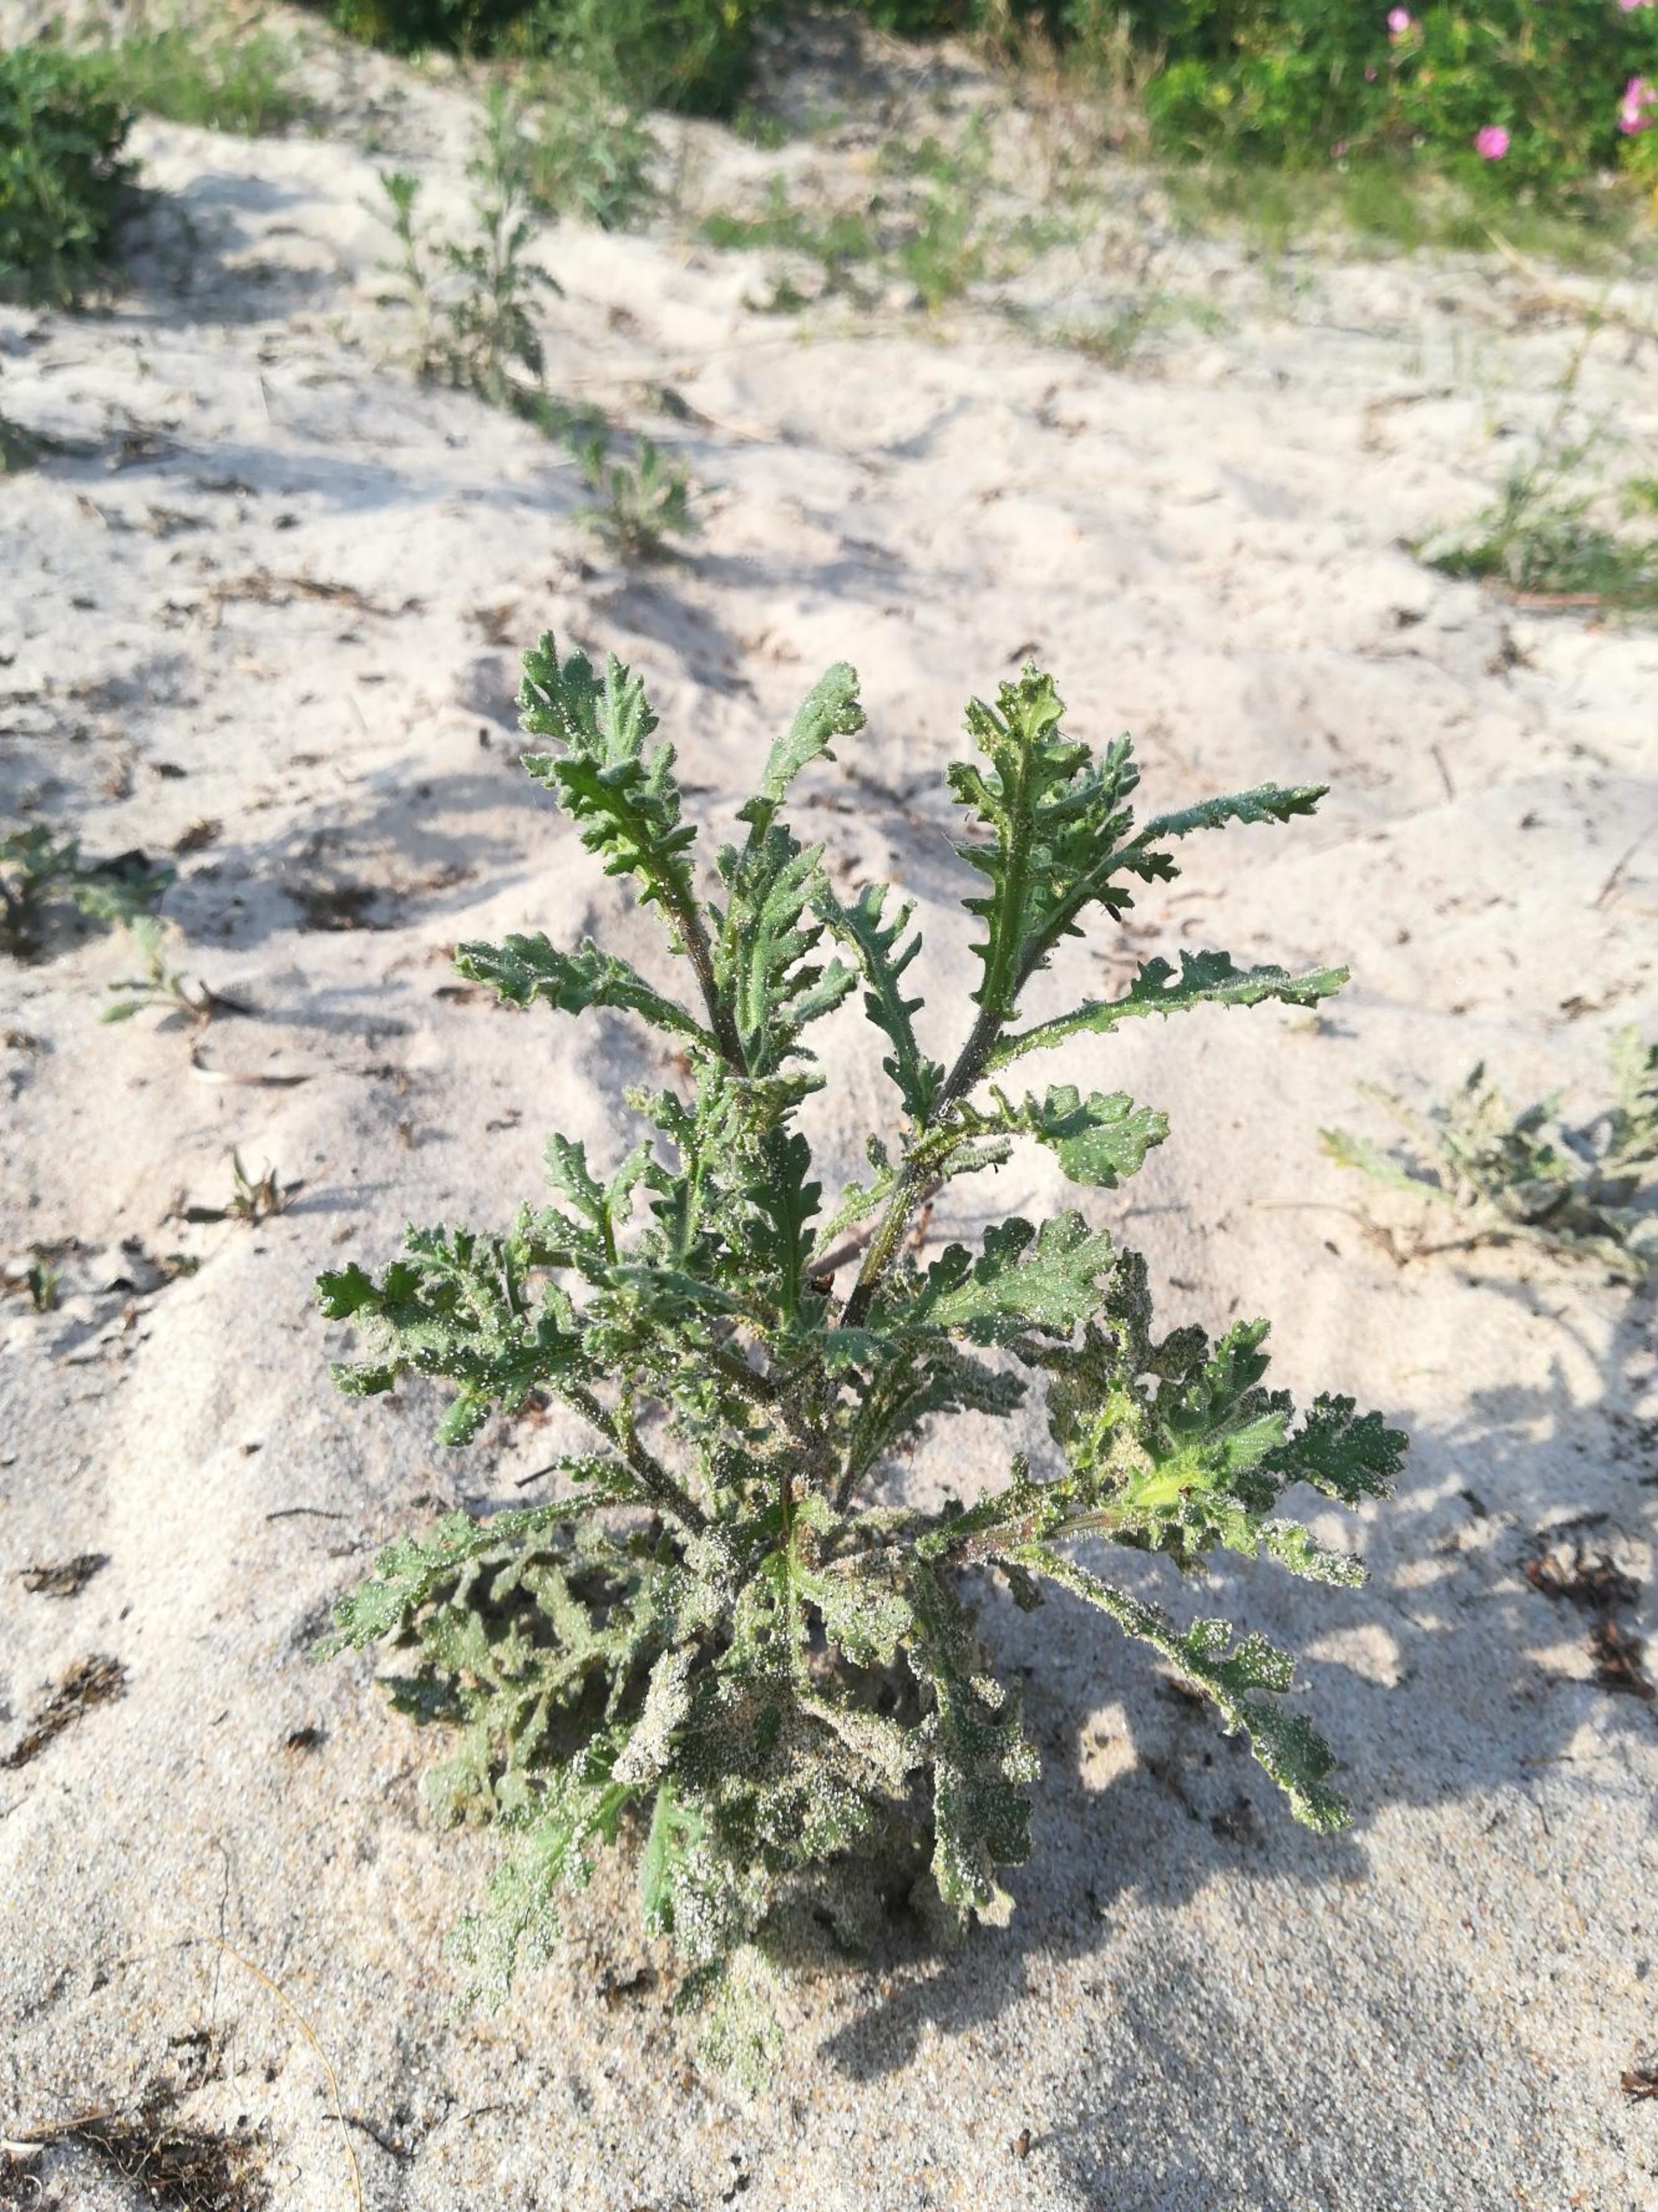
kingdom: Plantae
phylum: Tracheophyta
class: Magnoliopsida
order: Asterales
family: Asteraceae
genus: Senecio
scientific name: Senecio viscosus
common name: Klæbrig brandbæger
